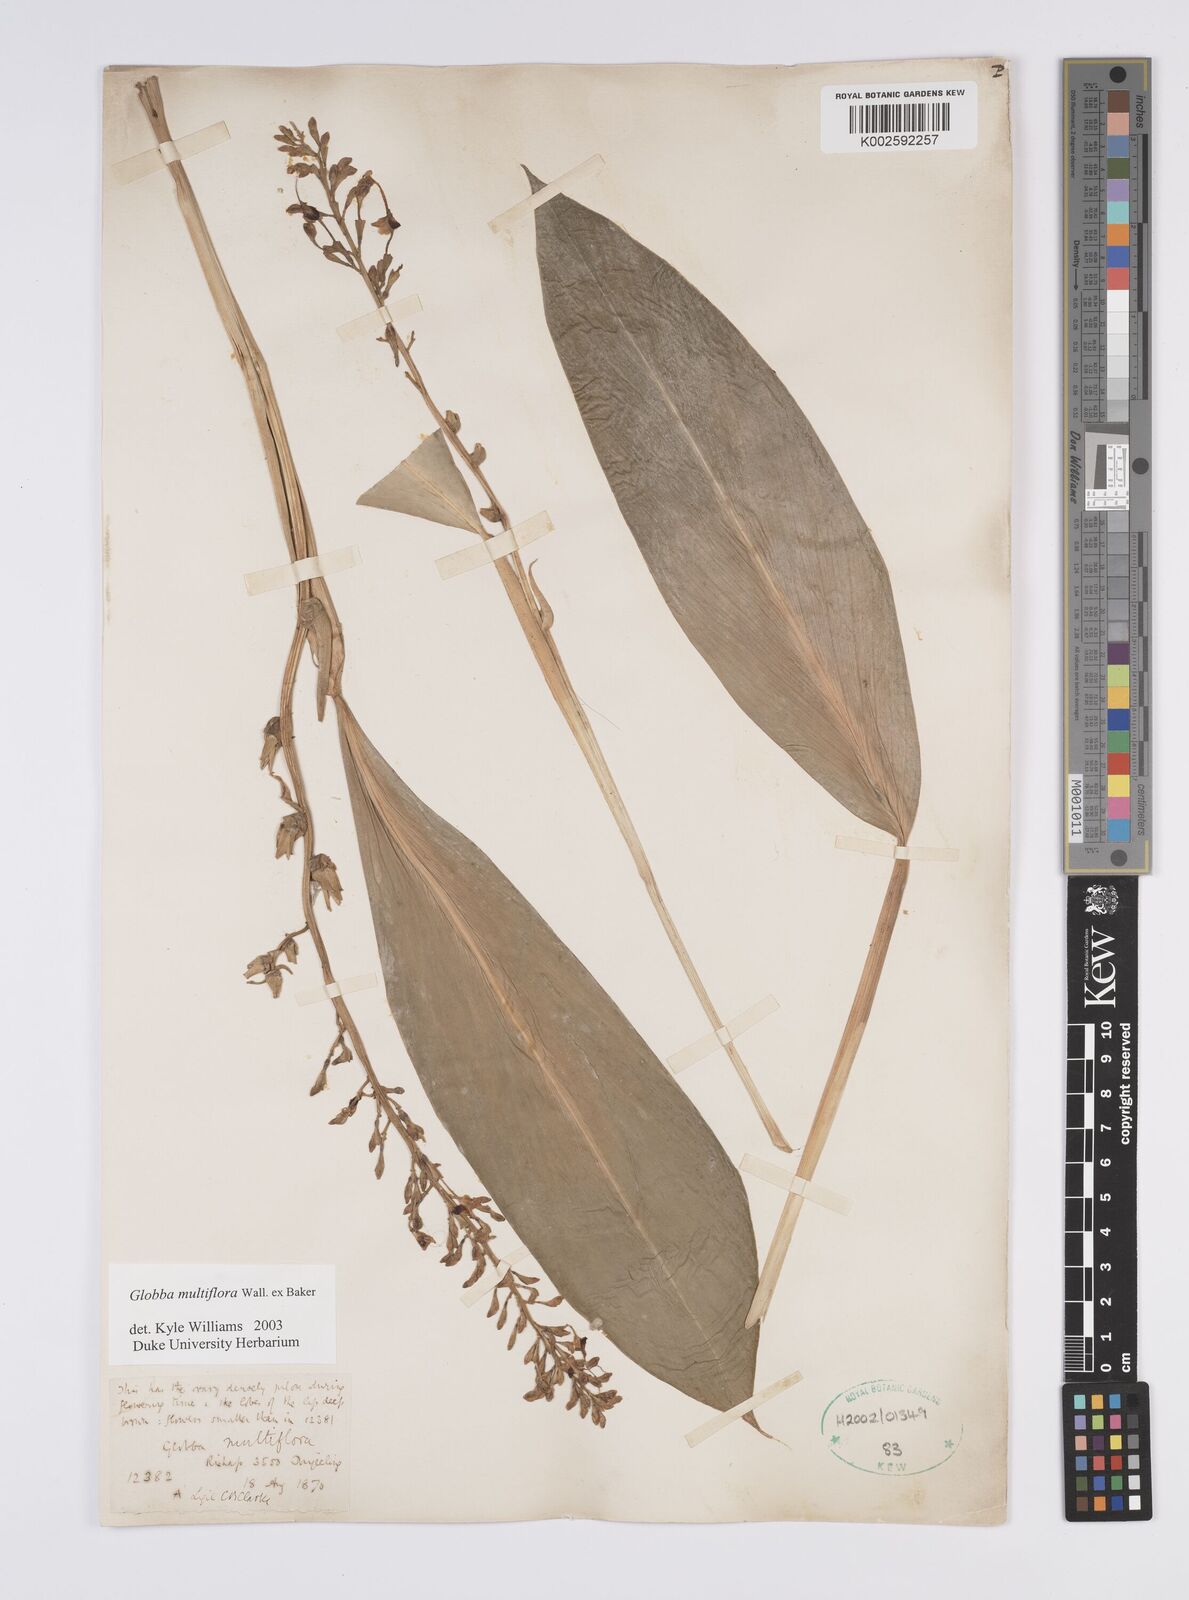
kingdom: Plantae
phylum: Tracheophyta
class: Liliopsida
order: Zingiberales
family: Zingiberaceae
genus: Globba
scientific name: Globba multiflora
